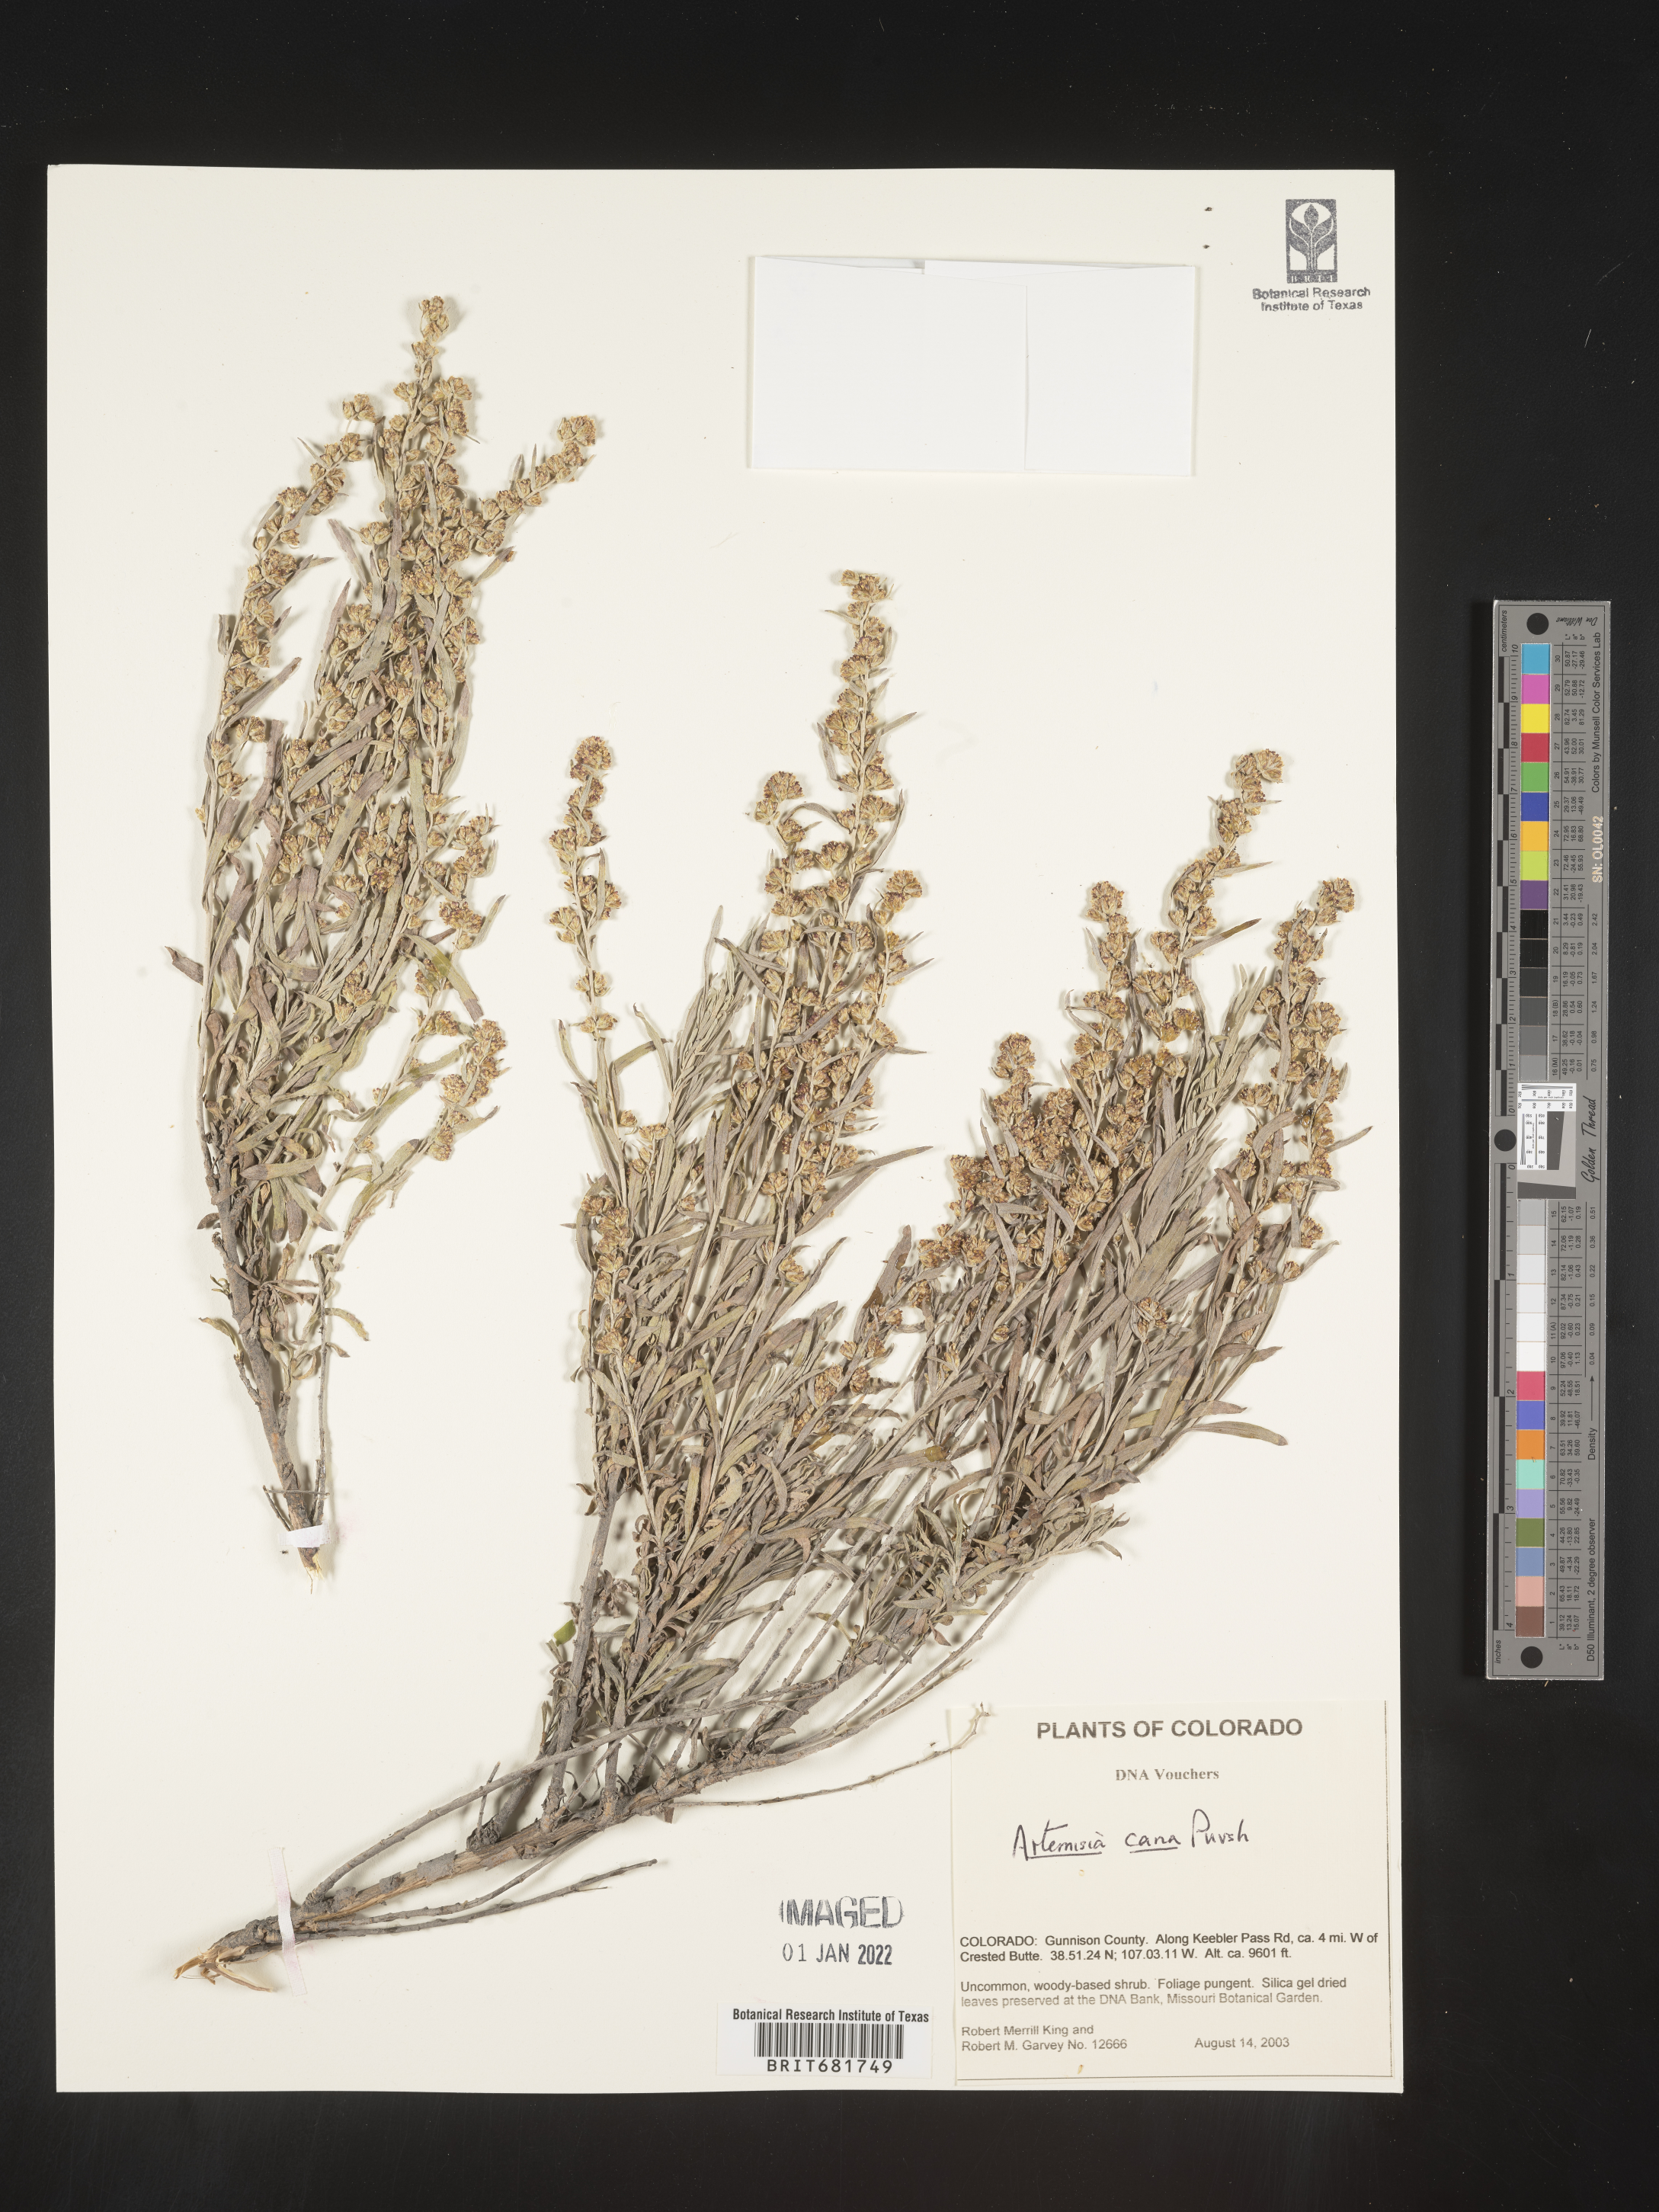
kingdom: Plantae
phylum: Tracheophyta
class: Magnoliopsida
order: Asterales
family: Asteraceae
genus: Artemisia
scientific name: Artemisia cana
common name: Silver sagebrush
